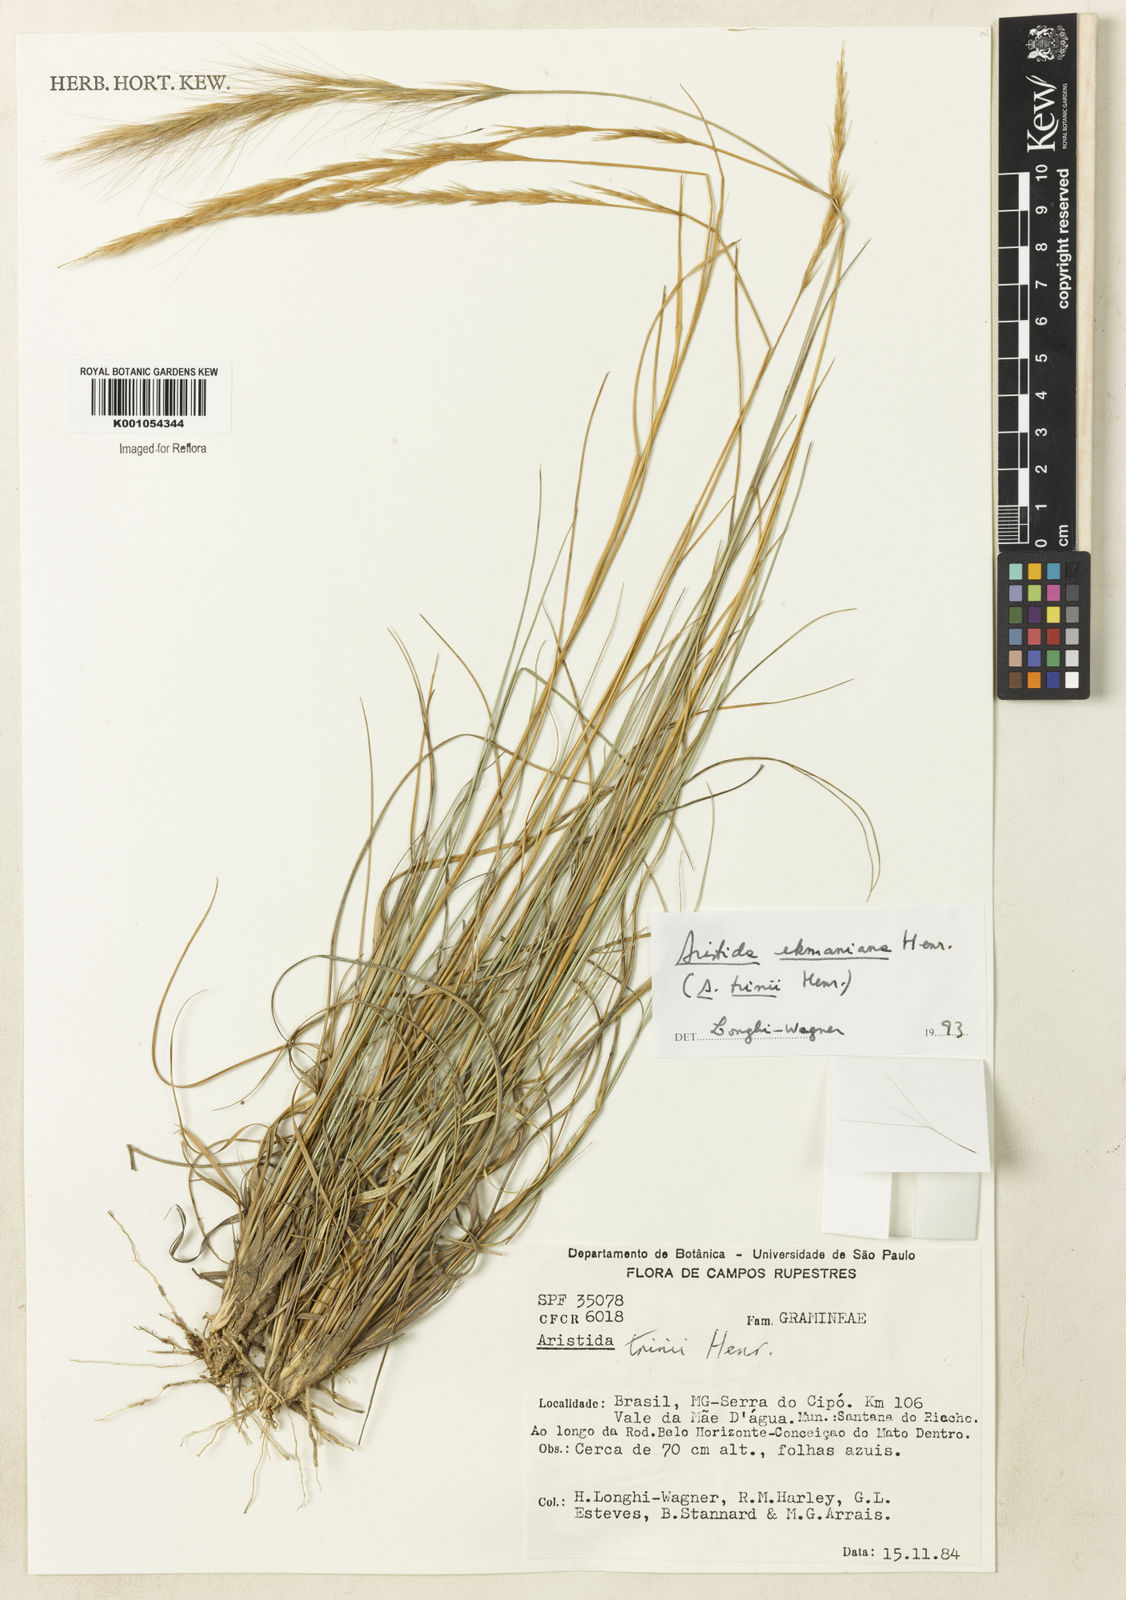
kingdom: Plantae
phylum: Tracheophyta
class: Liliopsida
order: Poales
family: Poaceae
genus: Aristida
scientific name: Aristida ekmaniana
